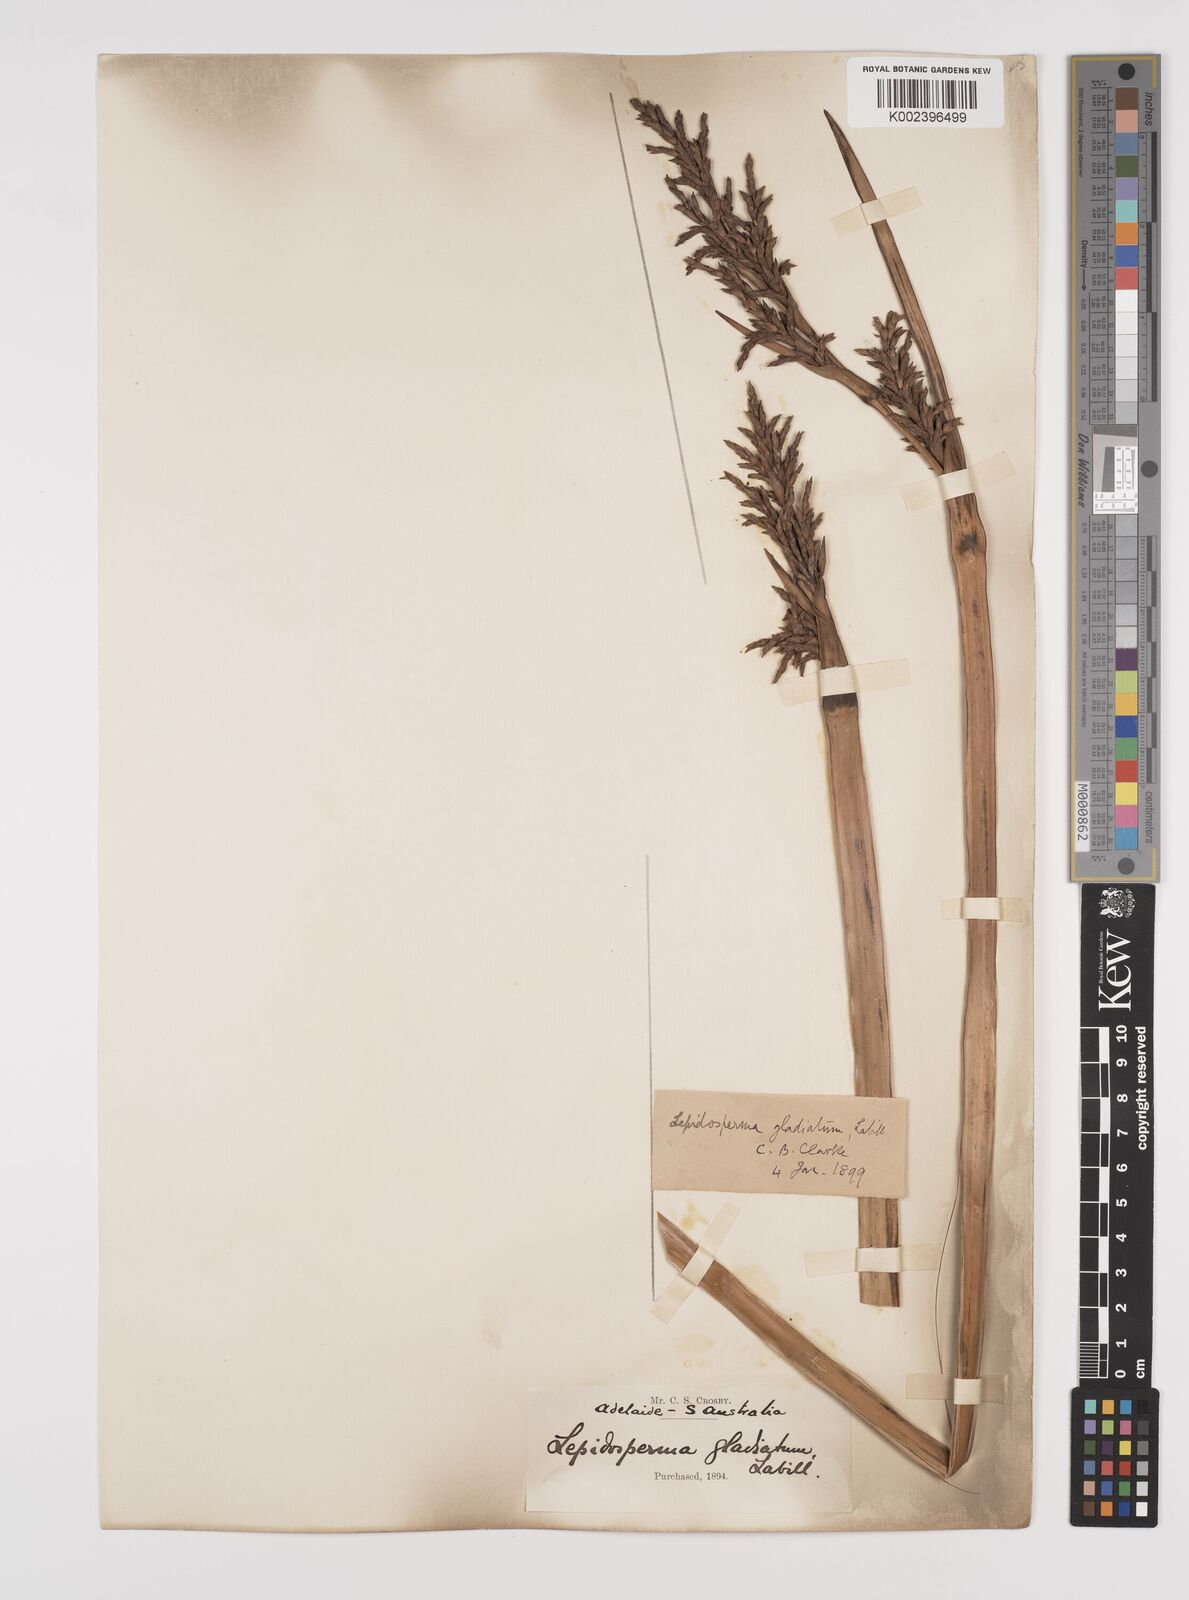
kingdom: Plantae
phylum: Tracheophyta
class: Liliopsida
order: Poales
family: Cyperaceae
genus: Lepidosperma
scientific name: Lepidosperma gladiatum
